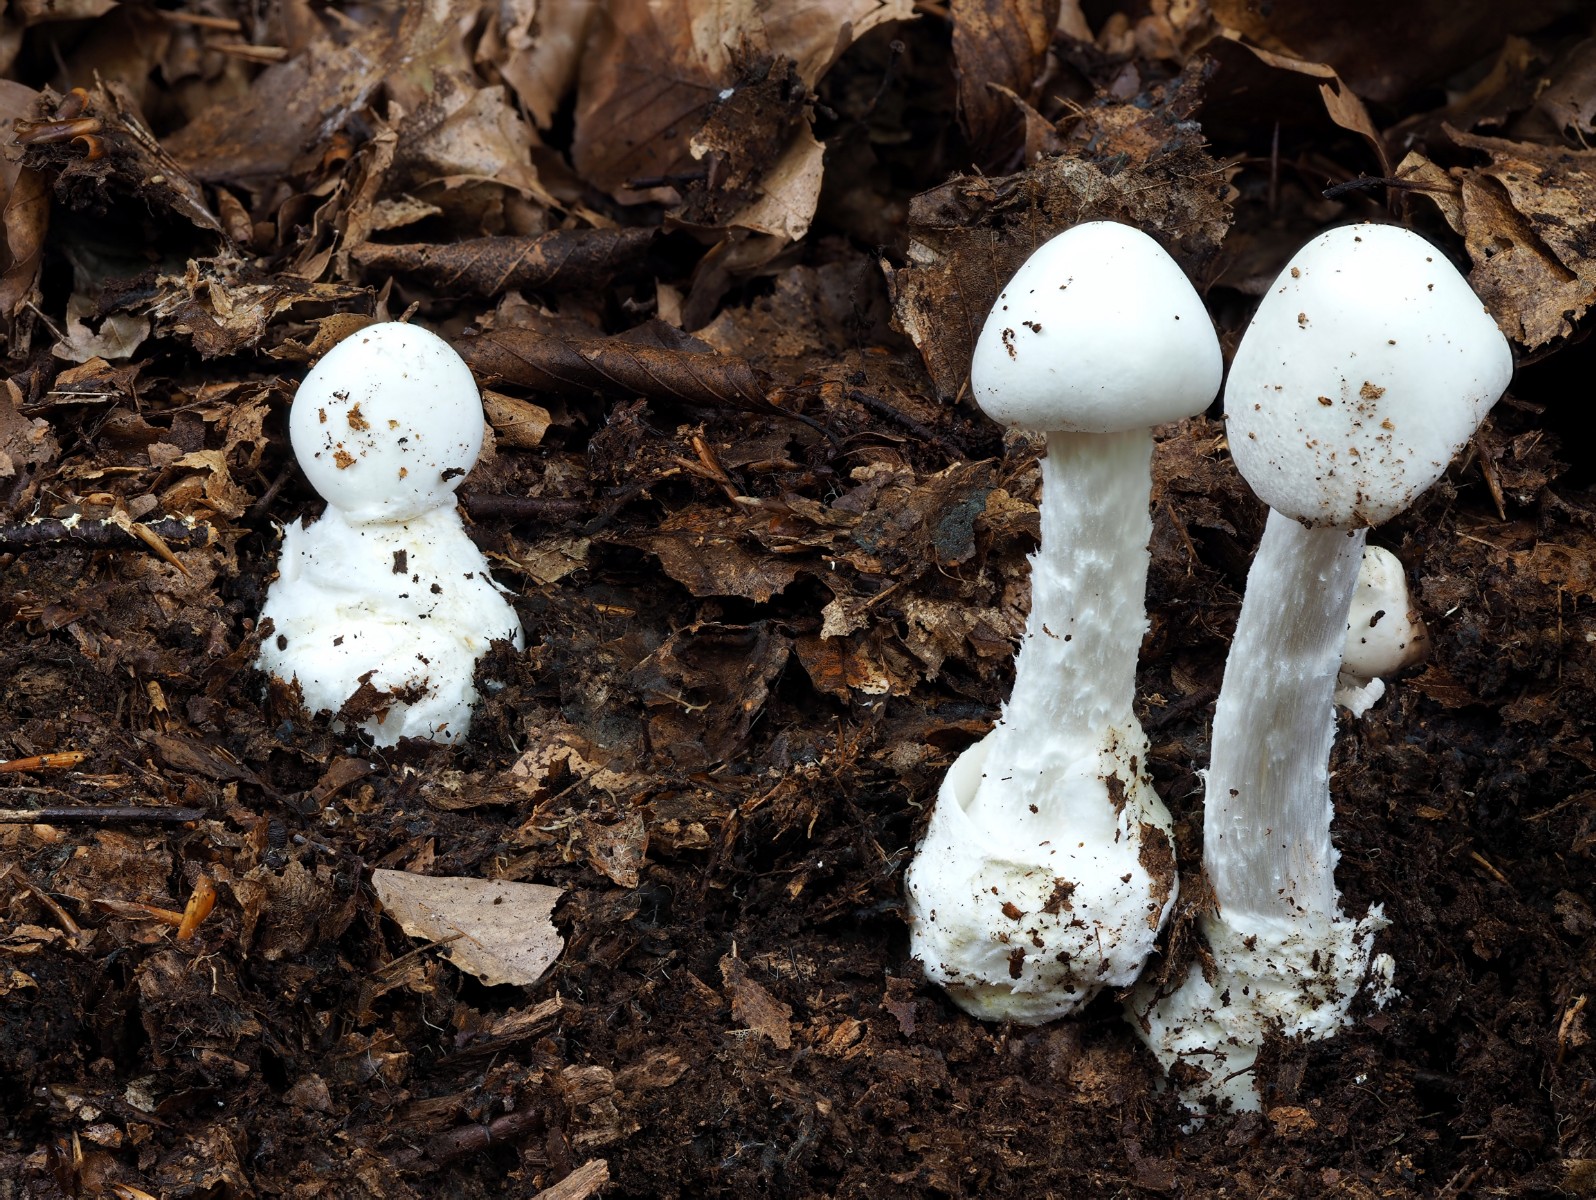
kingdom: Fungi
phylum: Basidiomycota
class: Agaricomycetes
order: Agaricales
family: Amanitaceae
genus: Amanita
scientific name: Amanita virosa
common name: snehvid fluesvamp
